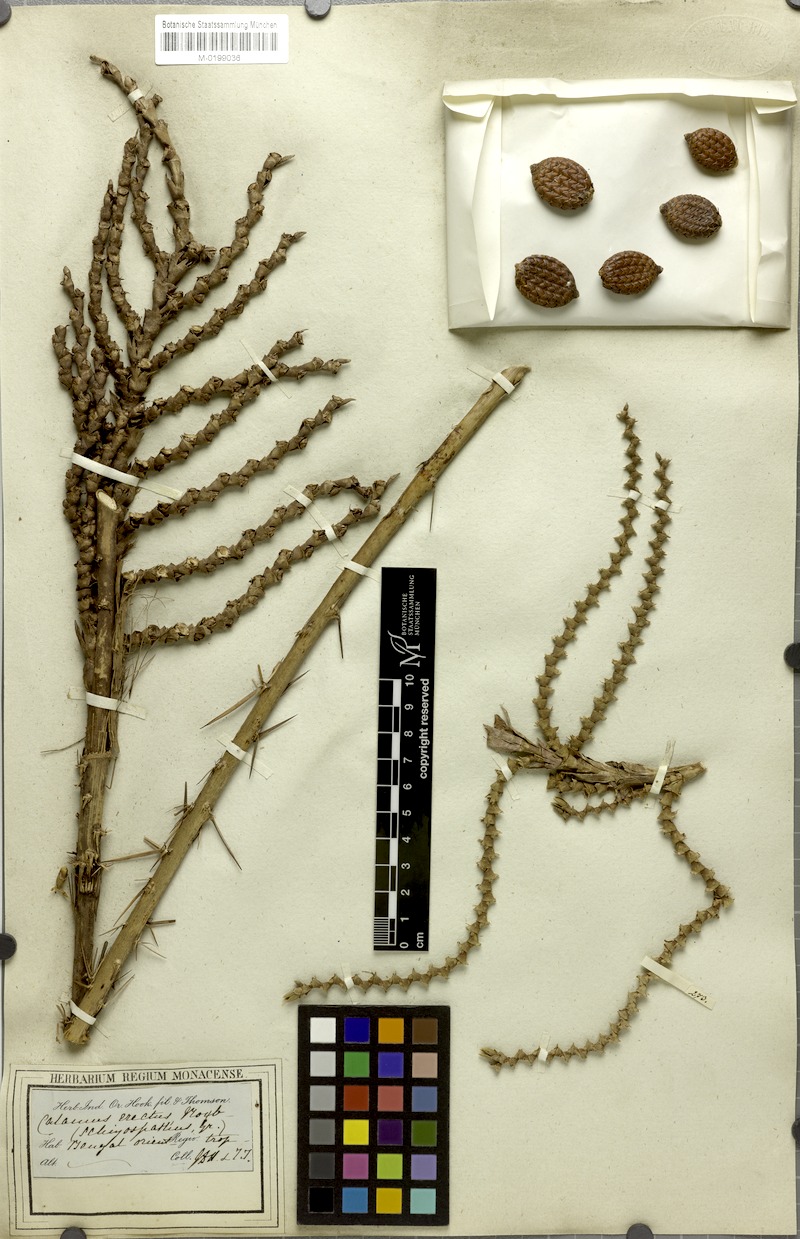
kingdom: Plantae
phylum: Tracheophyta
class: Liliopsida
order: Arecales
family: Arecaceae
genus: Calamus
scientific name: Calamus erectus
